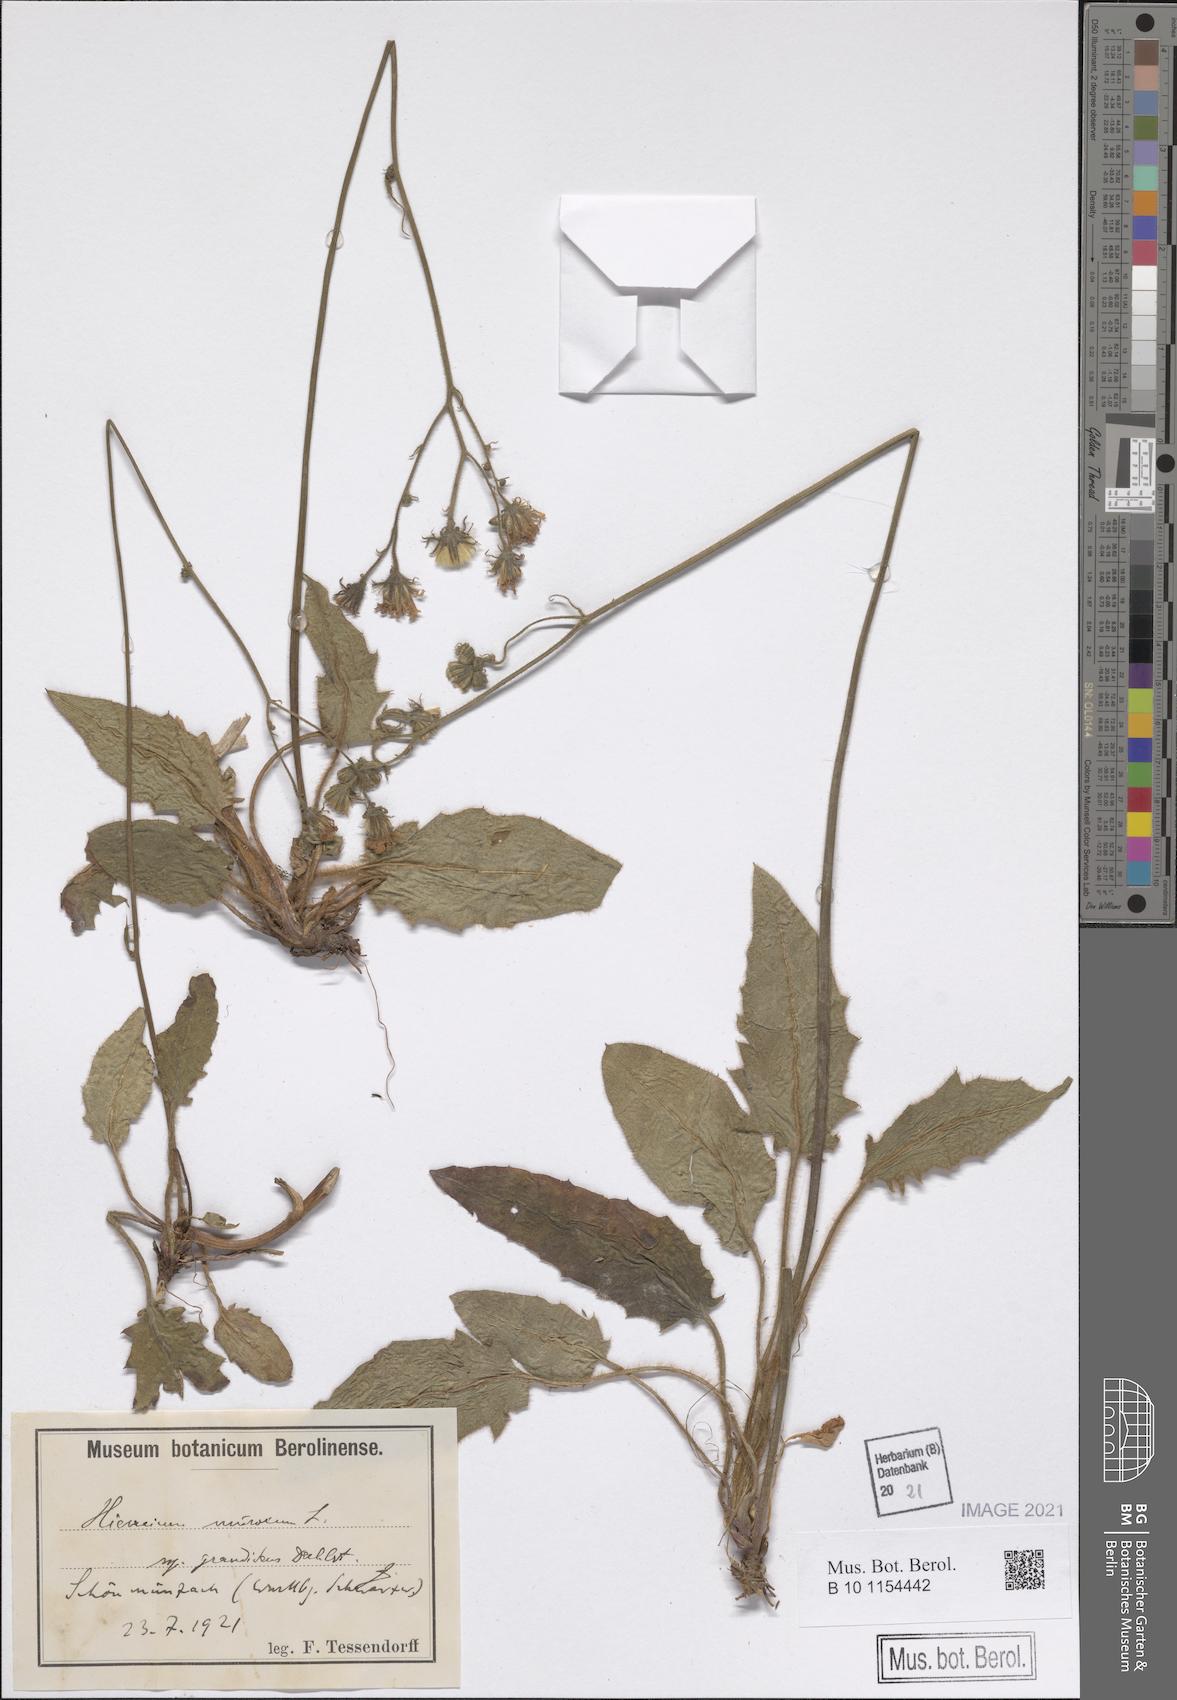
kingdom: Plantae
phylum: Tracheophyta
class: Magnoliopsida
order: Asterales
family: Asteraceae
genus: Hieracium
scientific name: Hieracium murorum
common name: Wall hawkweed
